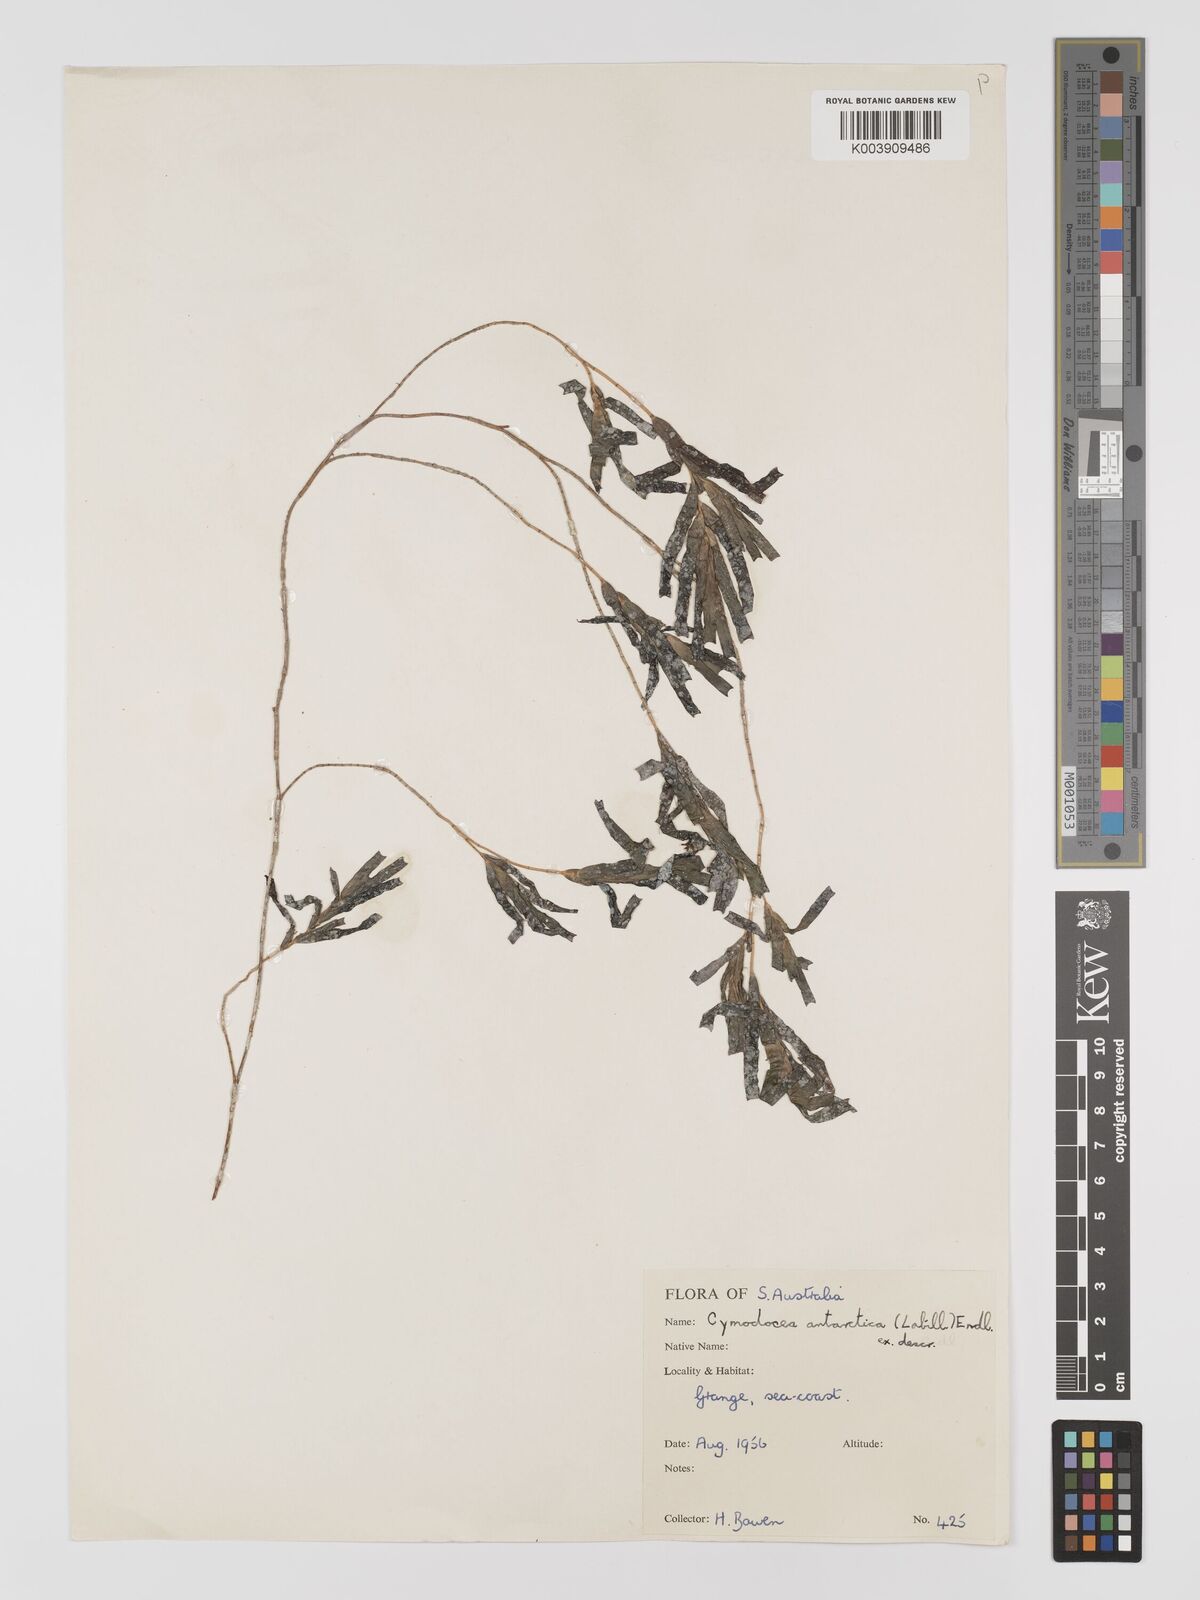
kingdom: Plantae
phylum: Tracheophyta
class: Liliopsida
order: Alismatales
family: Cymodoceaceae
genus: Amphibolis
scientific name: Amphibolis antarctica
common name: Species code: aa
